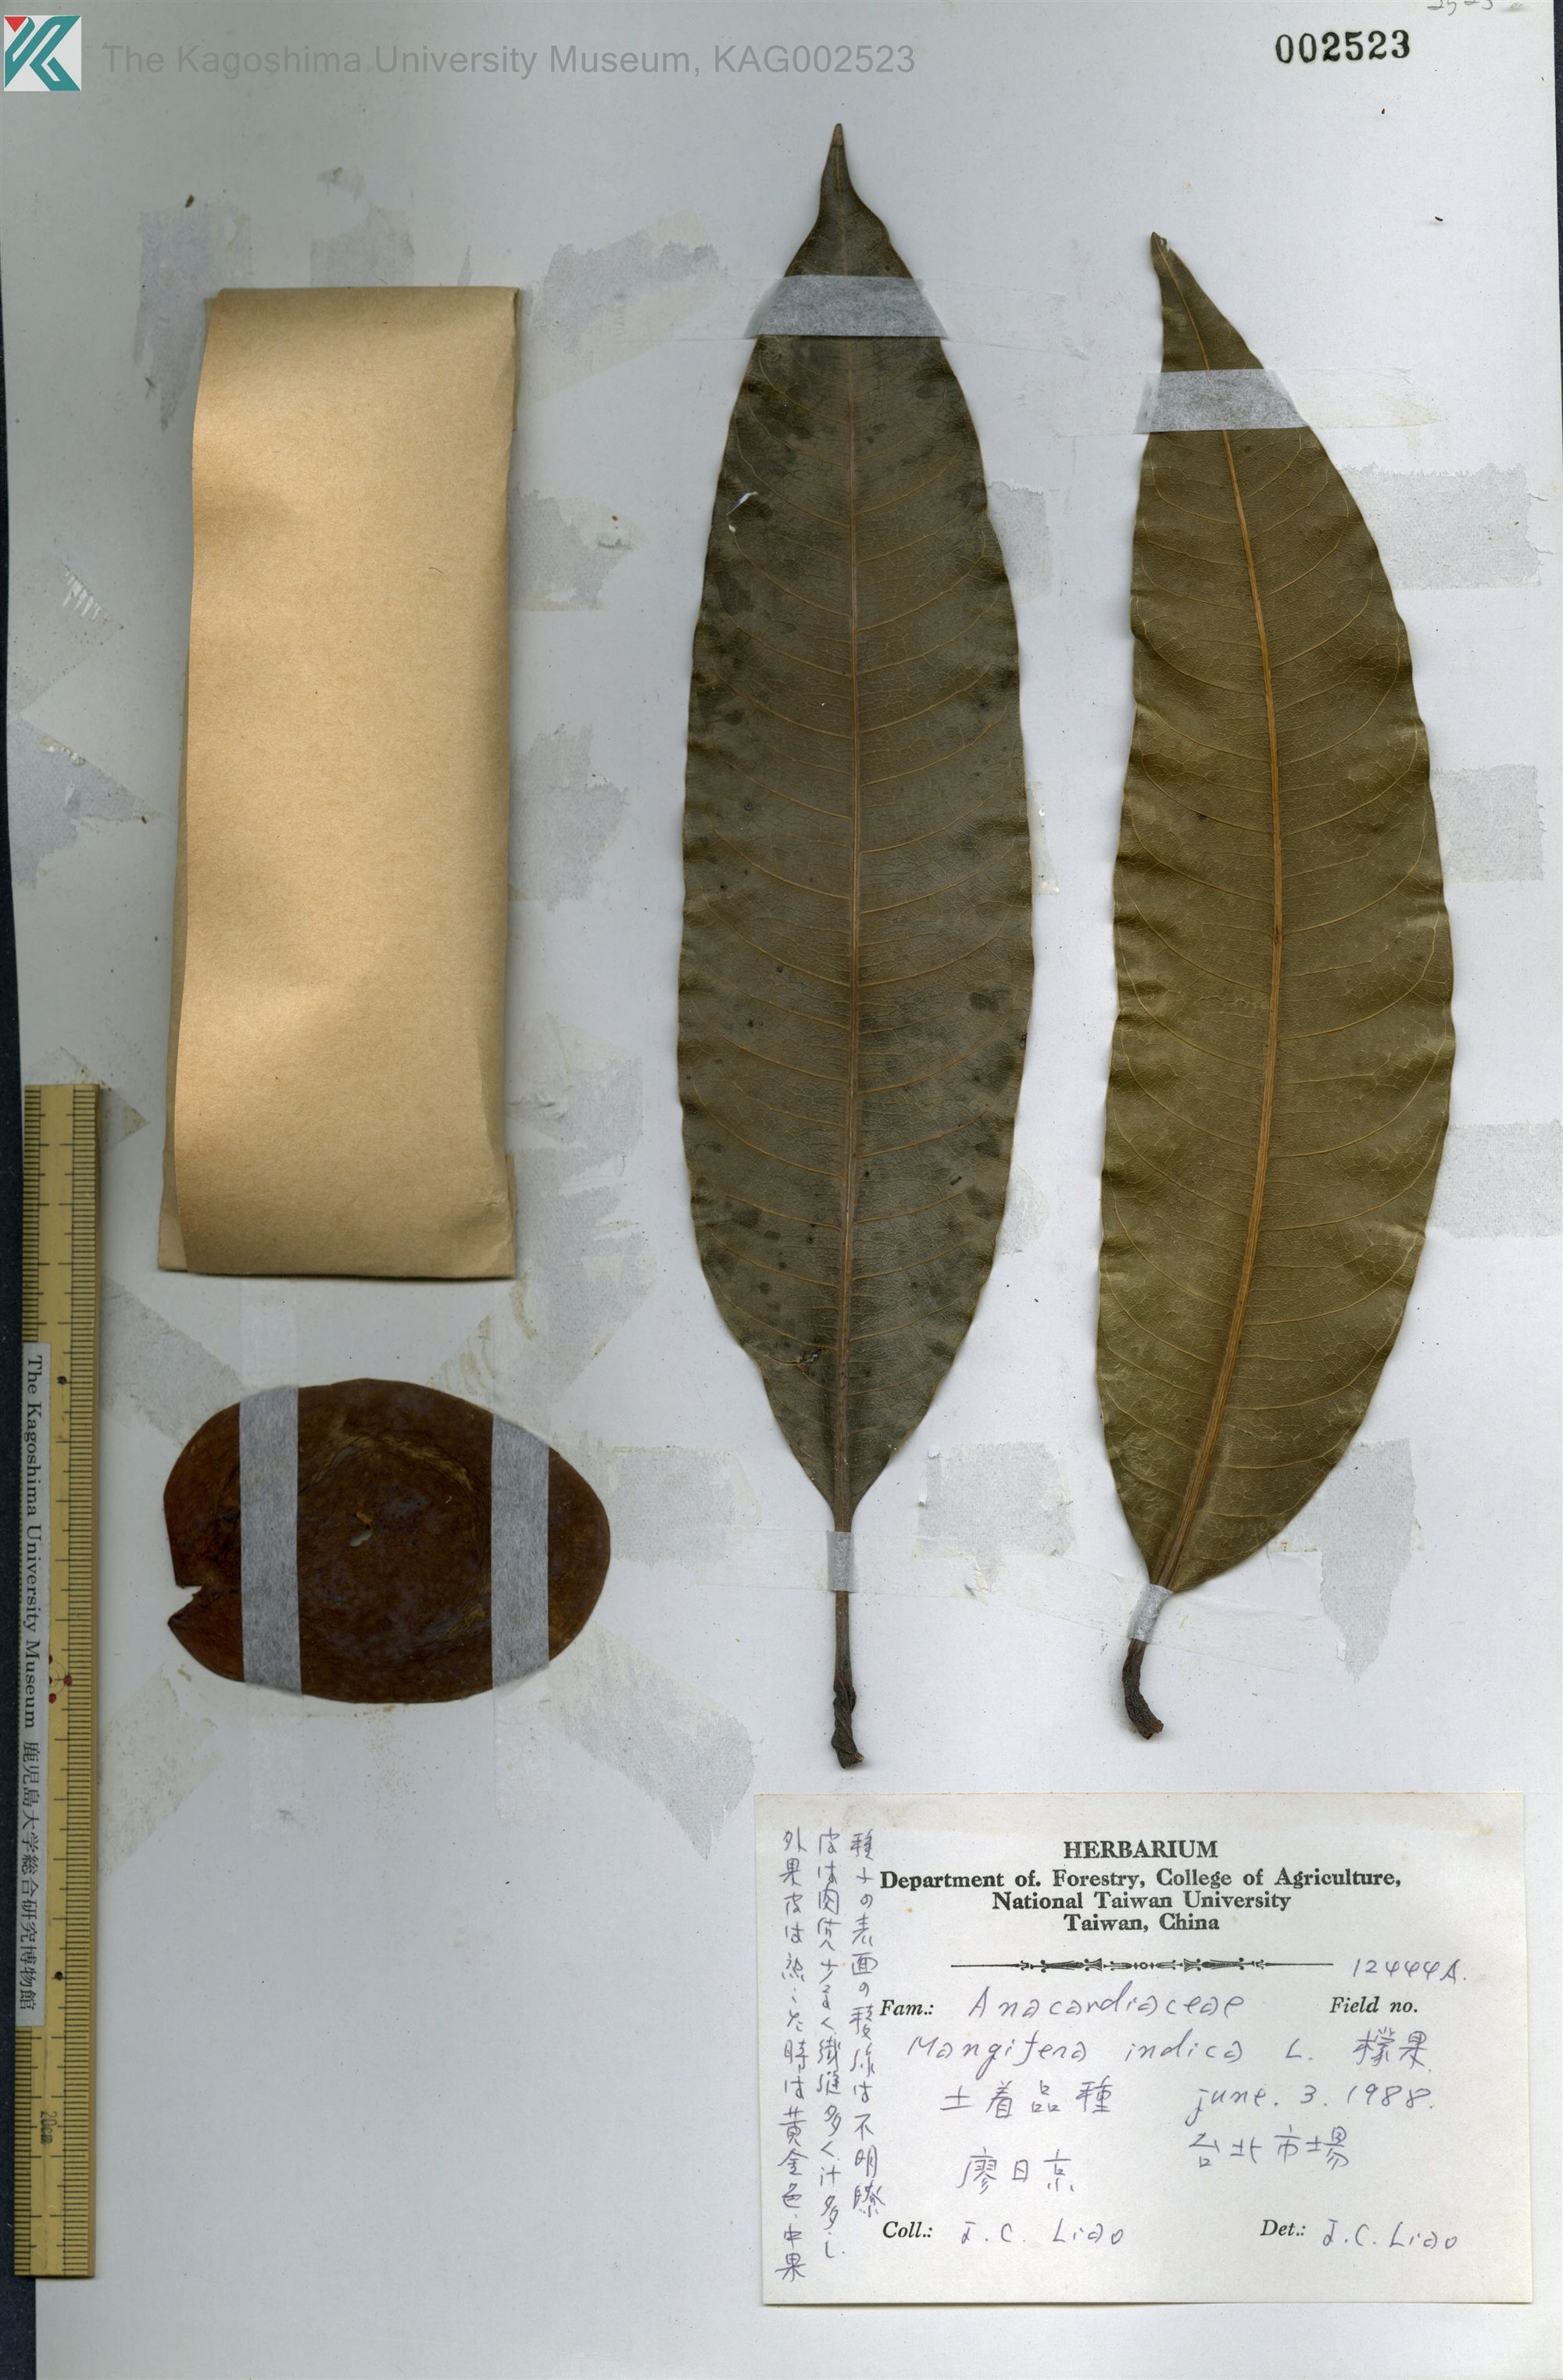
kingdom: Plantae
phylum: Tracheophyta
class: Magnoliopsida
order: Sapindales
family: Anacardiaceae
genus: Mangifera
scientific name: Mangifera indica
